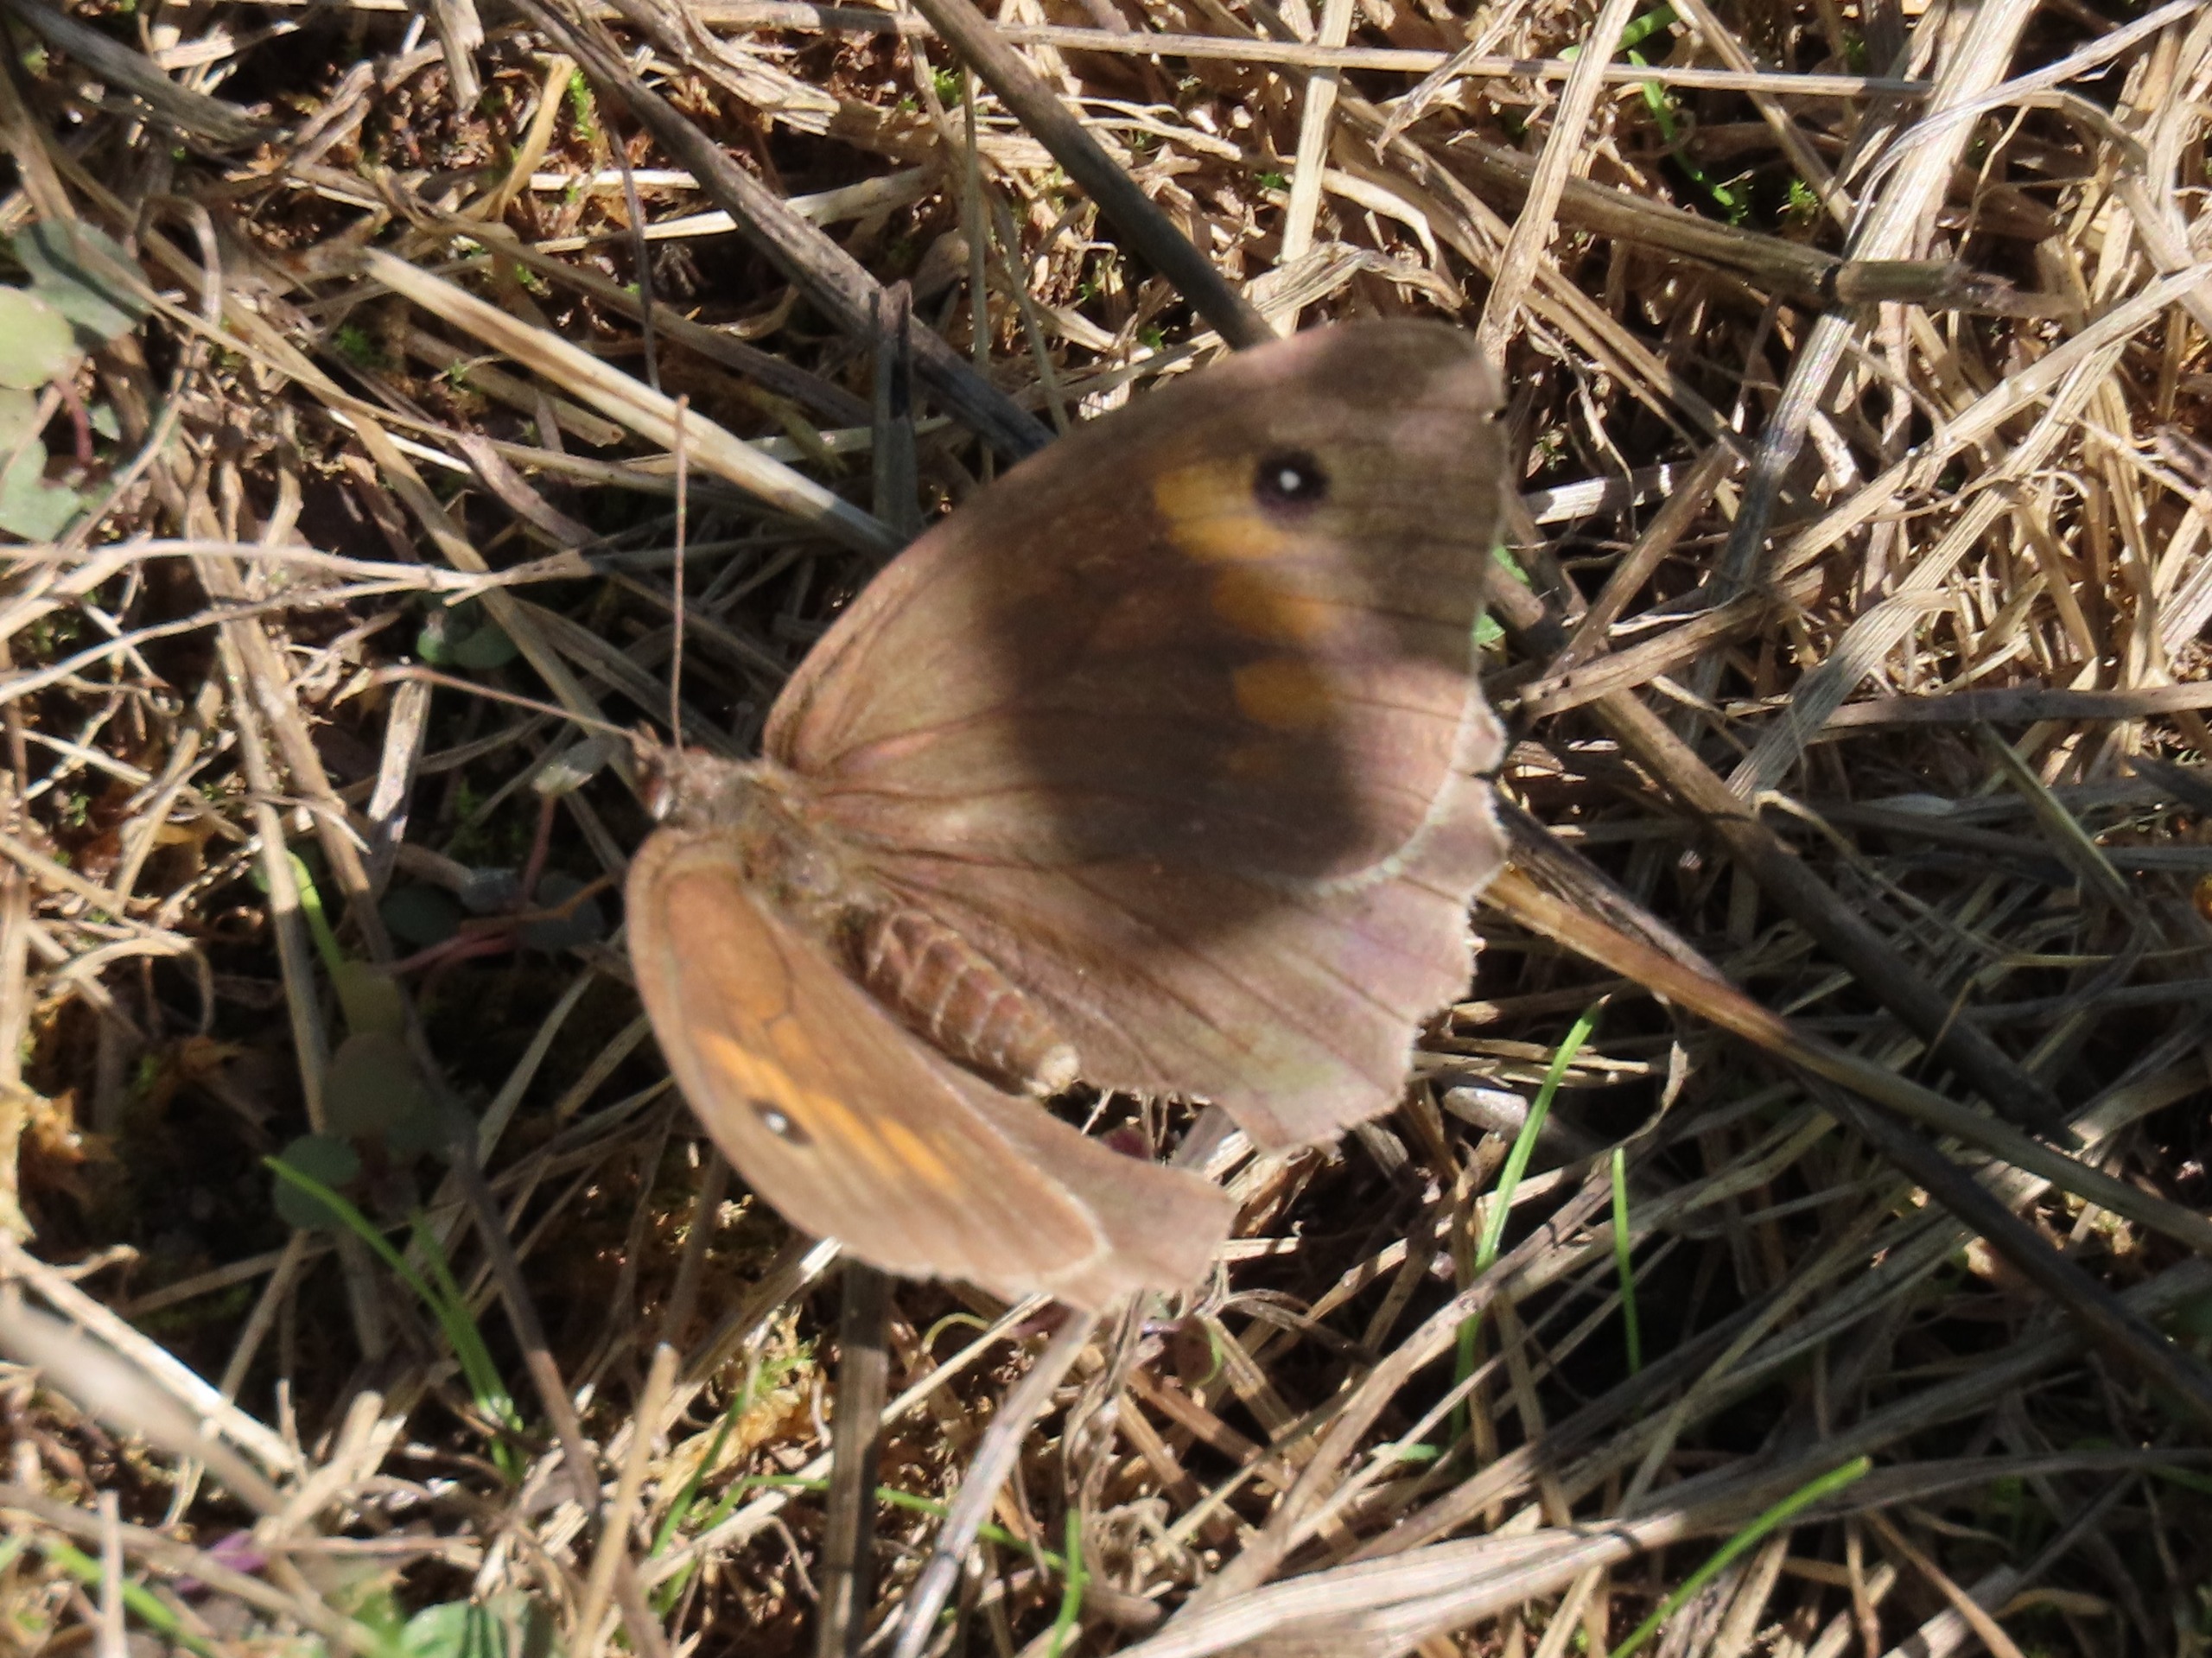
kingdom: Animalia
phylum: Arthropoda
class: Insecta
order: Lepidoptera
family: Nymphalidae
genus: Maniola
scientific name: Maniola jurtina
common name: Græsrandøje
